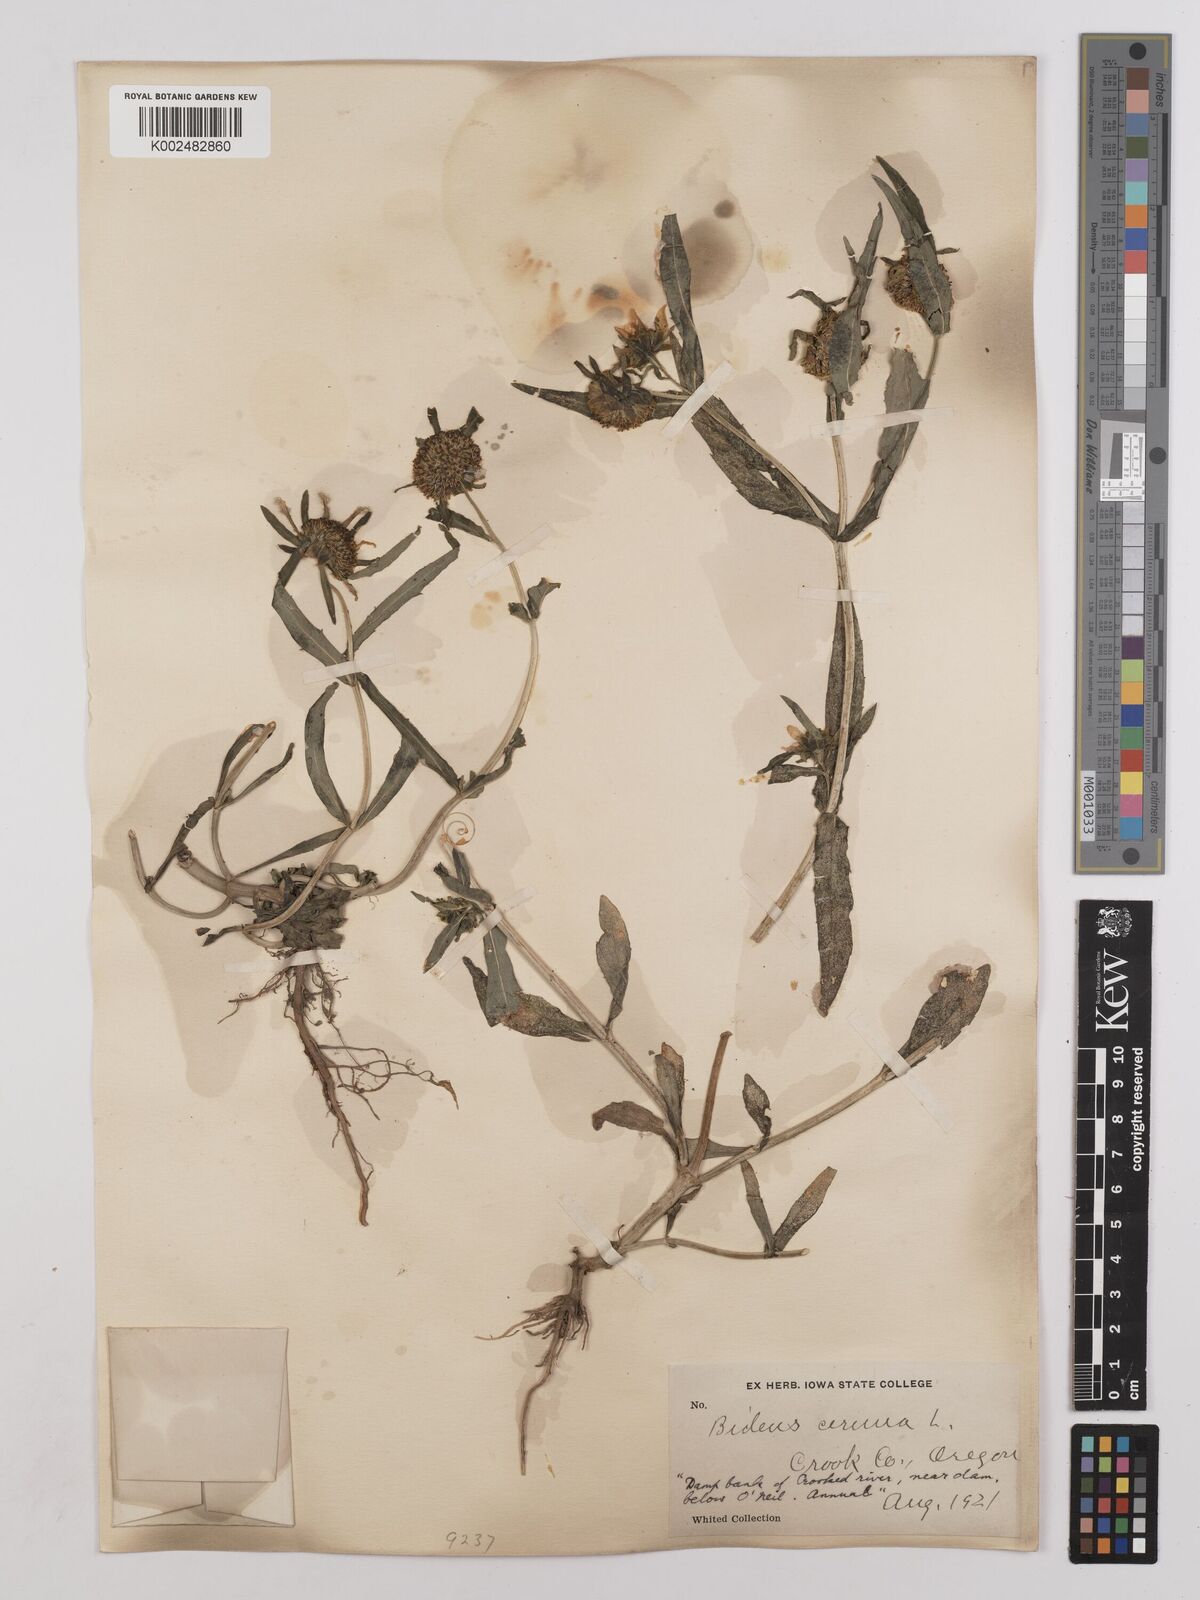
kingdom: Plantae
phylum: Tracheophyta
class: Magnoliopsida
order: Asterales
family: Asteraceae
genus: Bidens
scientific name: Bidens
